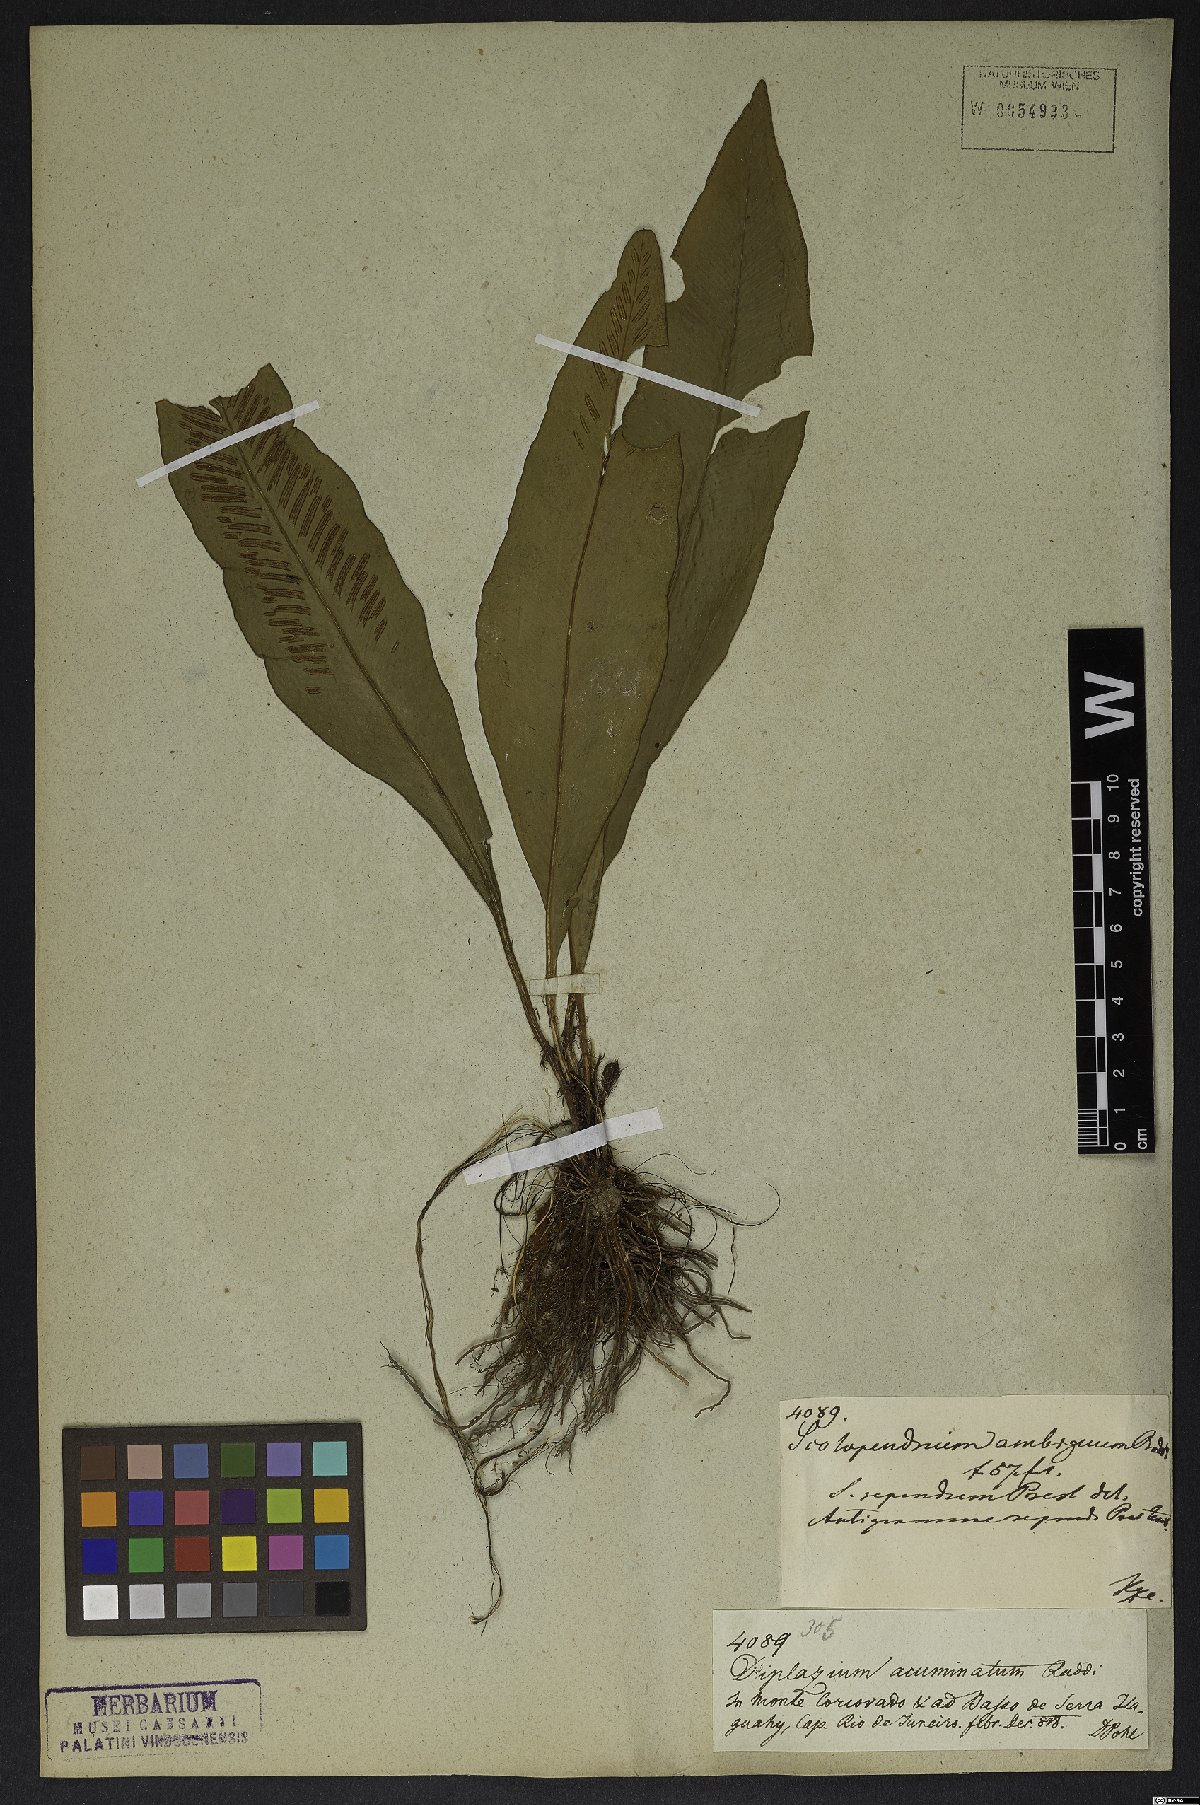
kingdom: Plantae
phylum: Tracheophyta
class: Polypodiopsida
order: Polypodiales
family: Aspleniaceae
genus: Asplenium
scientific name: Asplenium brasiliense
